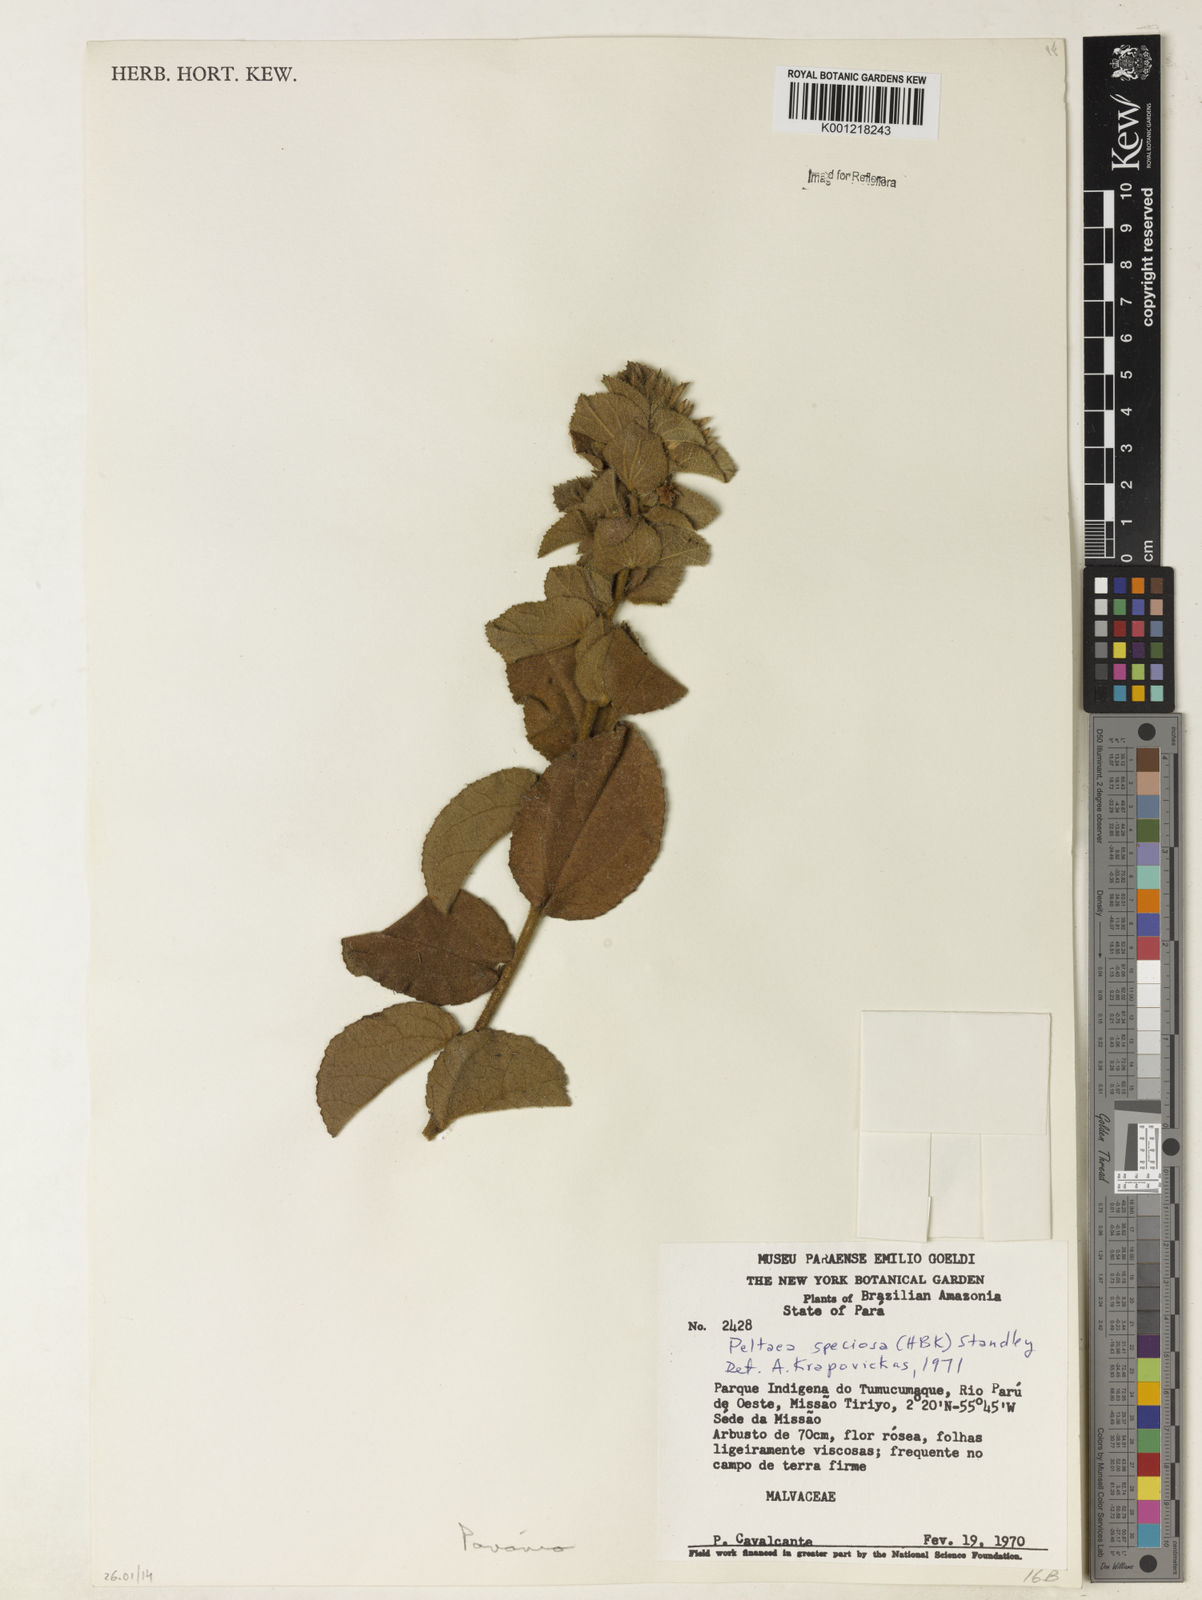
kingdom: Plantae
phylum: Tracheophyta
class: Magnoliopsida
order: Malvales
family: Malvaceae
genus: Peltaea
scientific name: Peltaea speciosa
